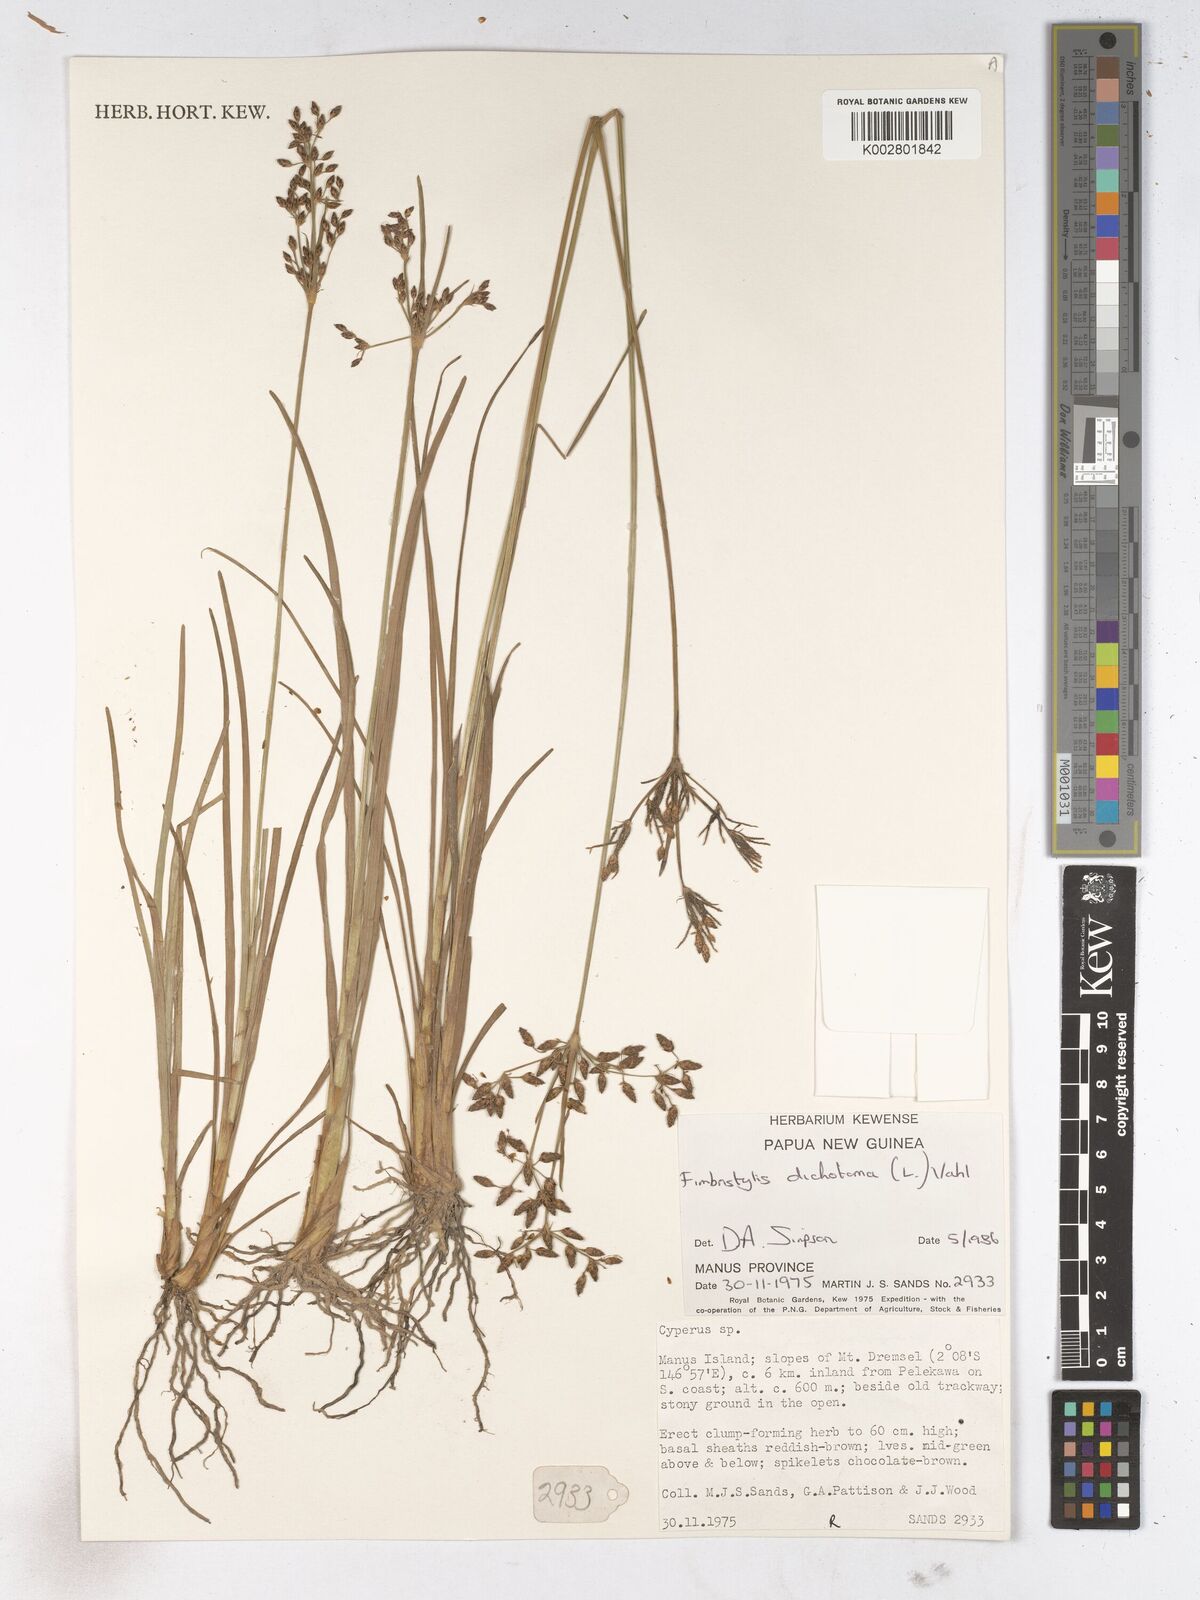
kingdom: Plantae
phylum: Tracheophyta
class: Liliopsida
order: Poales
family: Cyperaceae
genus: Fimbristylis
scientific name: Fimbristylis dichotoma
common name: Forked fimbry
